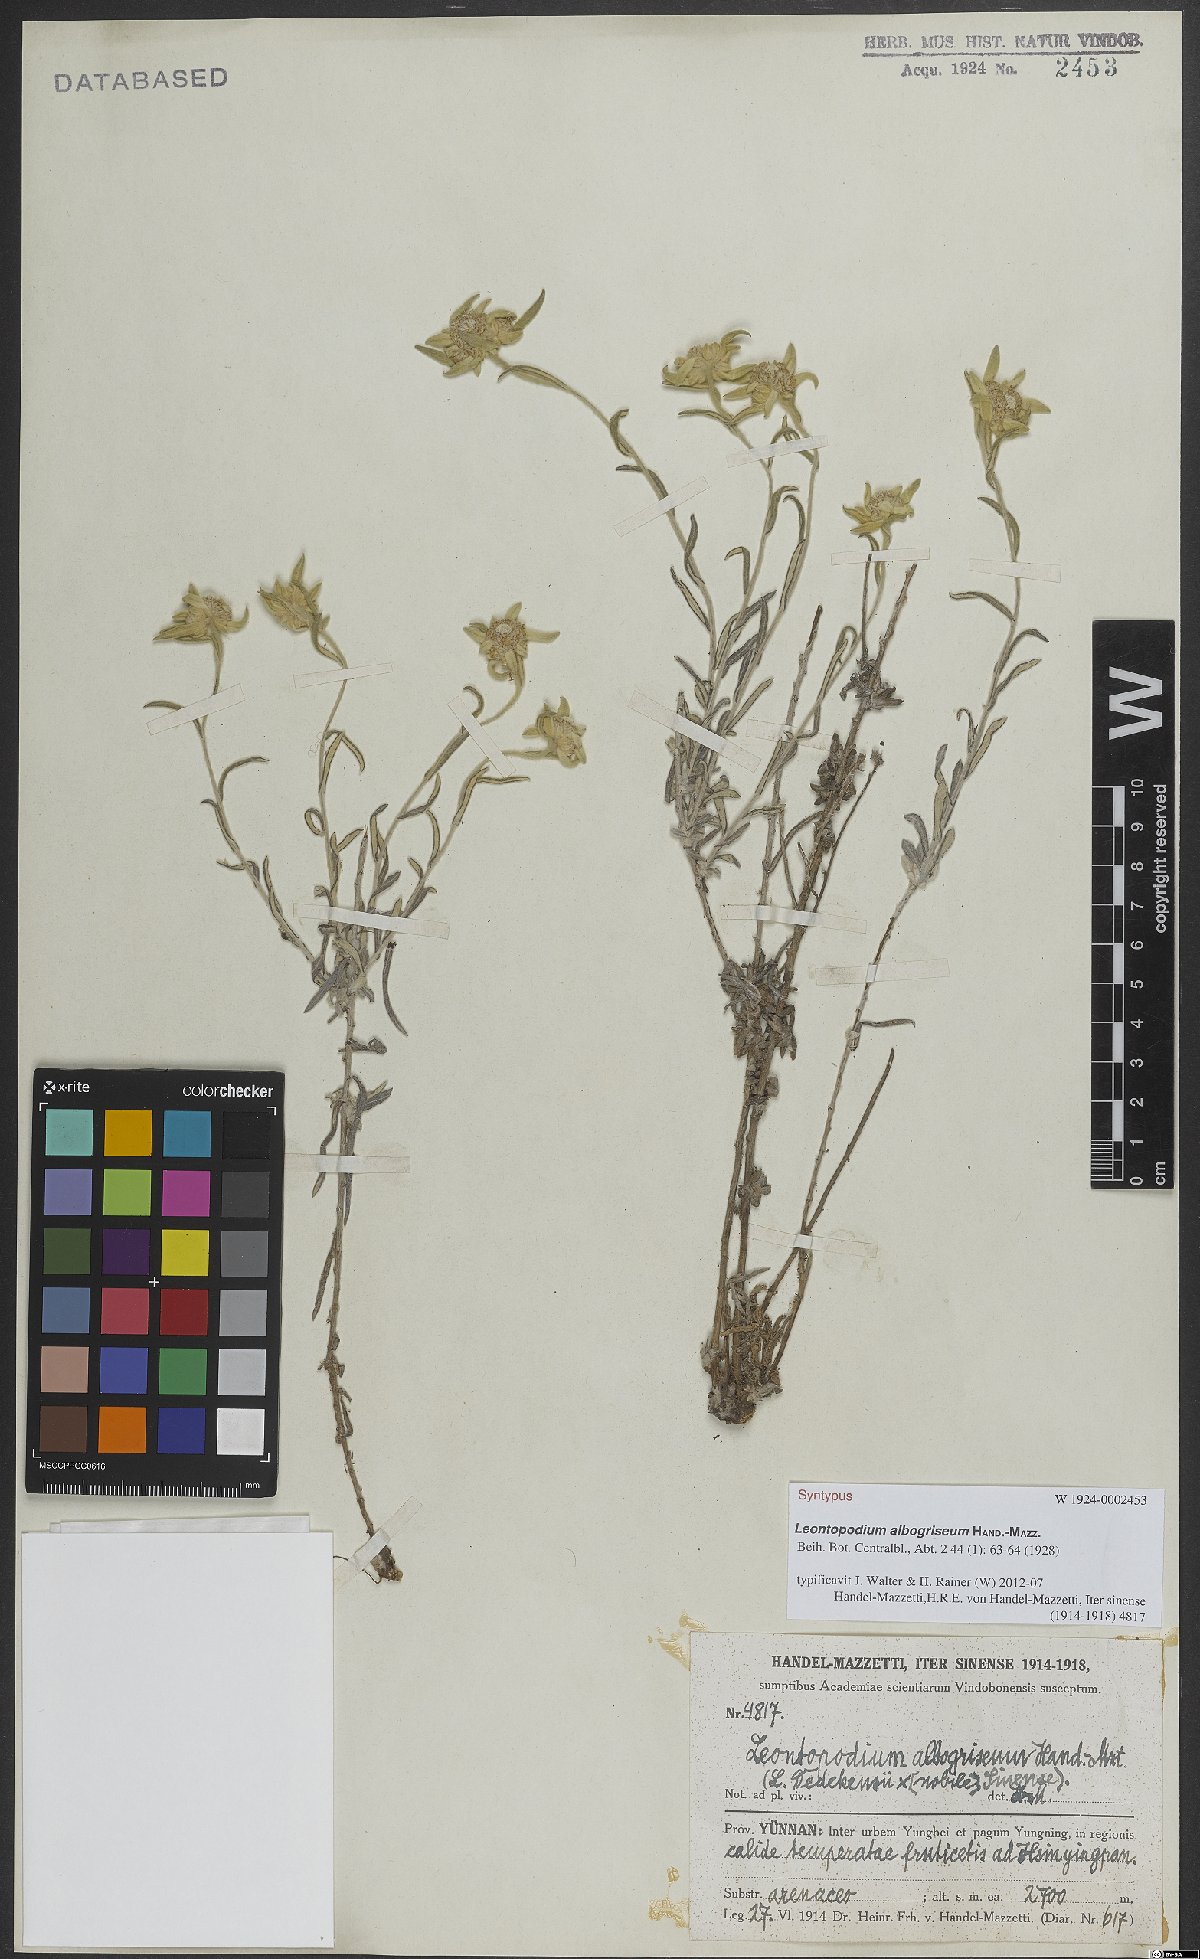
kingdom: Plantae
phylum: Tracheophyta
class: Magnoliopsida
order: Asterales
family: Asteraceae
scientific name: Asteraceae
